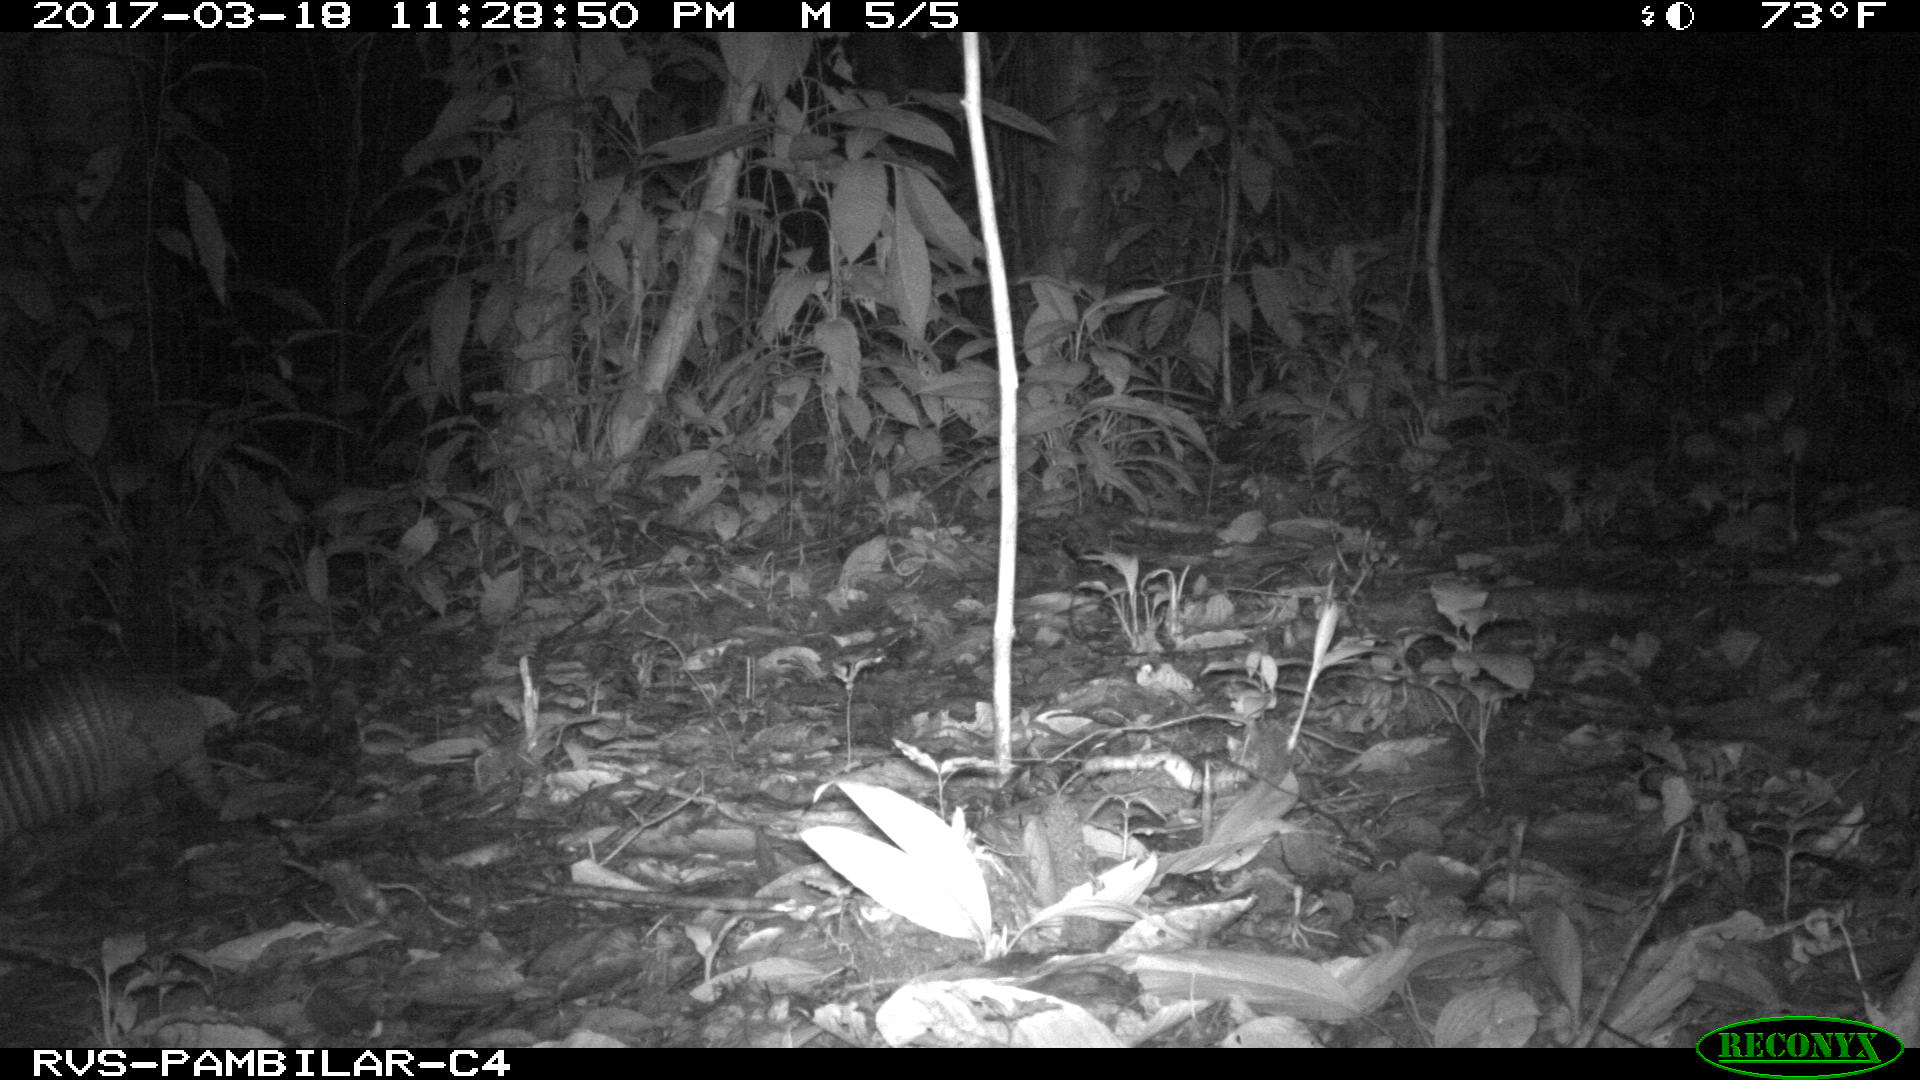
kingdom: Animalia
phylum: Chordata
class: Mammalia
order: Cingulata
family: Dasypodidae
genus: Dasypus
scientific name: Dasypus novemcinctus
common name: Nine-banded armadillo
